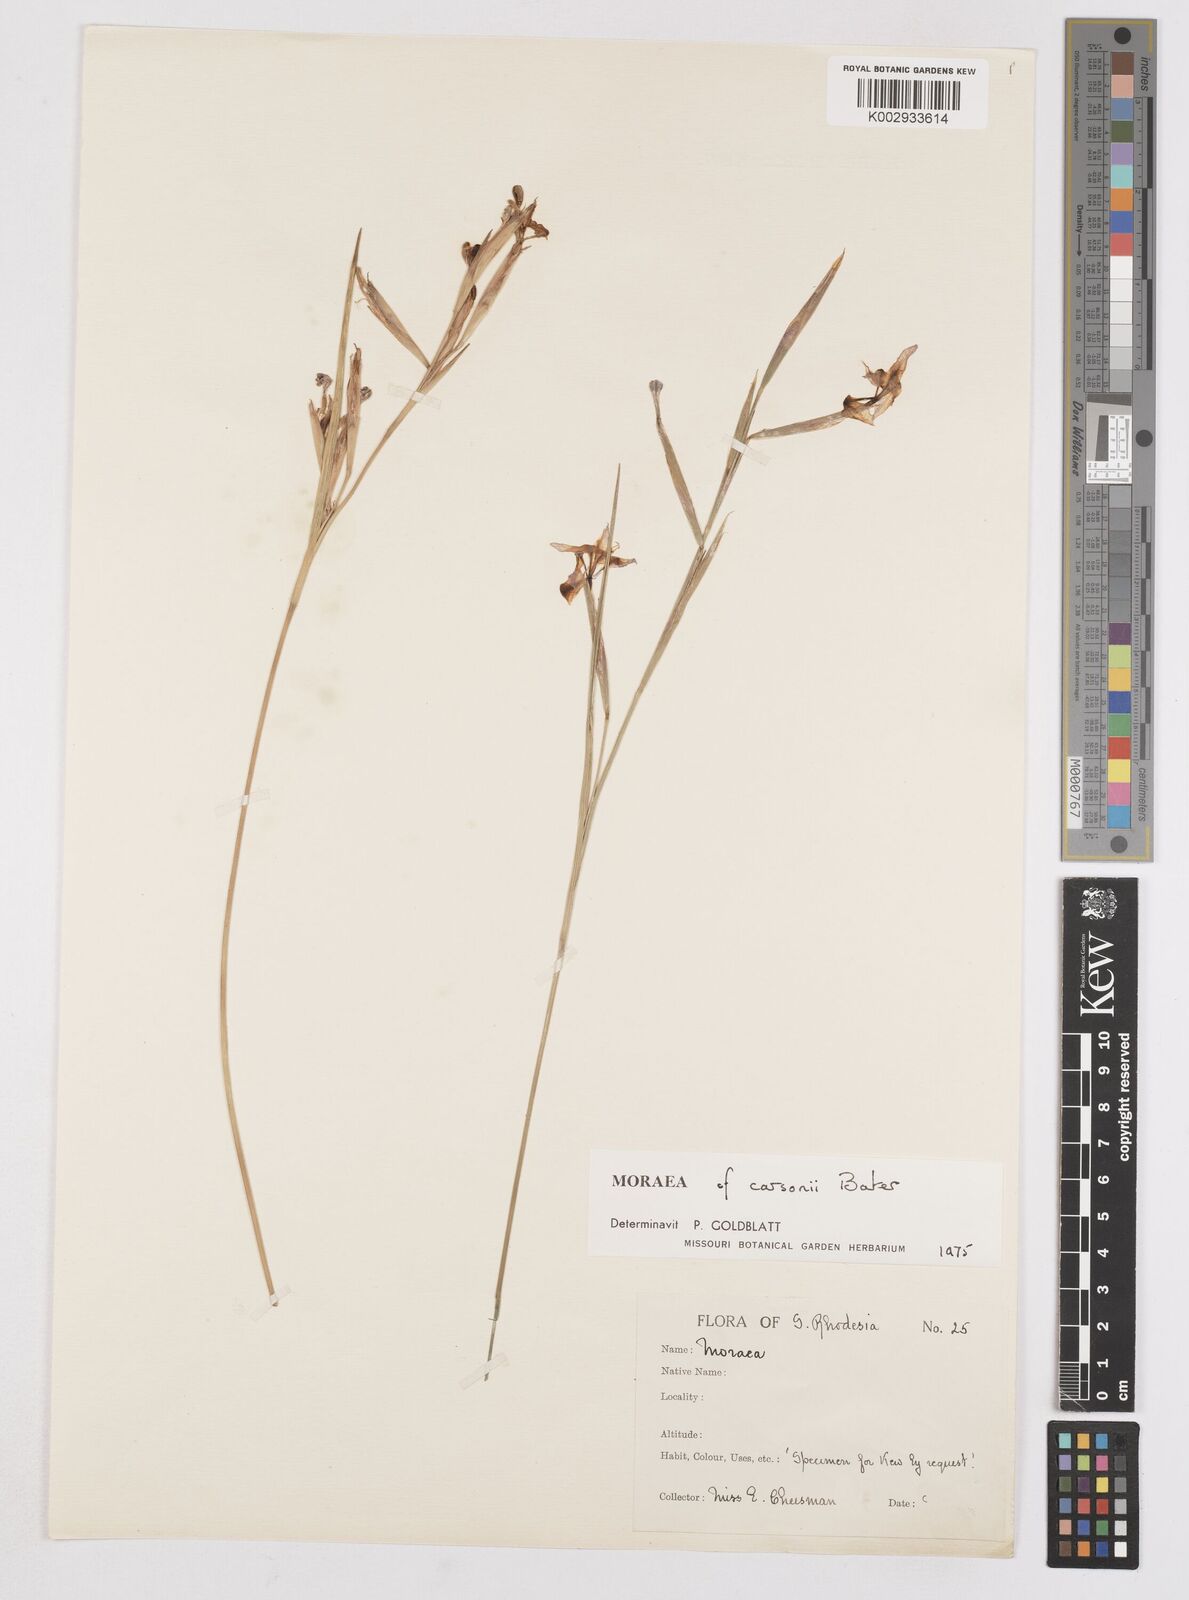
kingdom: Plantae
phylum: Tracheophyta
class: Liliopsida
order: Asparagales
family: Iridaceae
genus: Moraea
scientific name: Moraea carsonii
